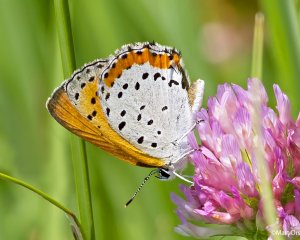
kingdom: Animalia
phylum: Arthropoda
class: Insecta
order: Lepidoptera
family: Sesiidae
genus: Sesia
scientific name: Sesia Lycaena hyllus
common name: Bronze Copper
